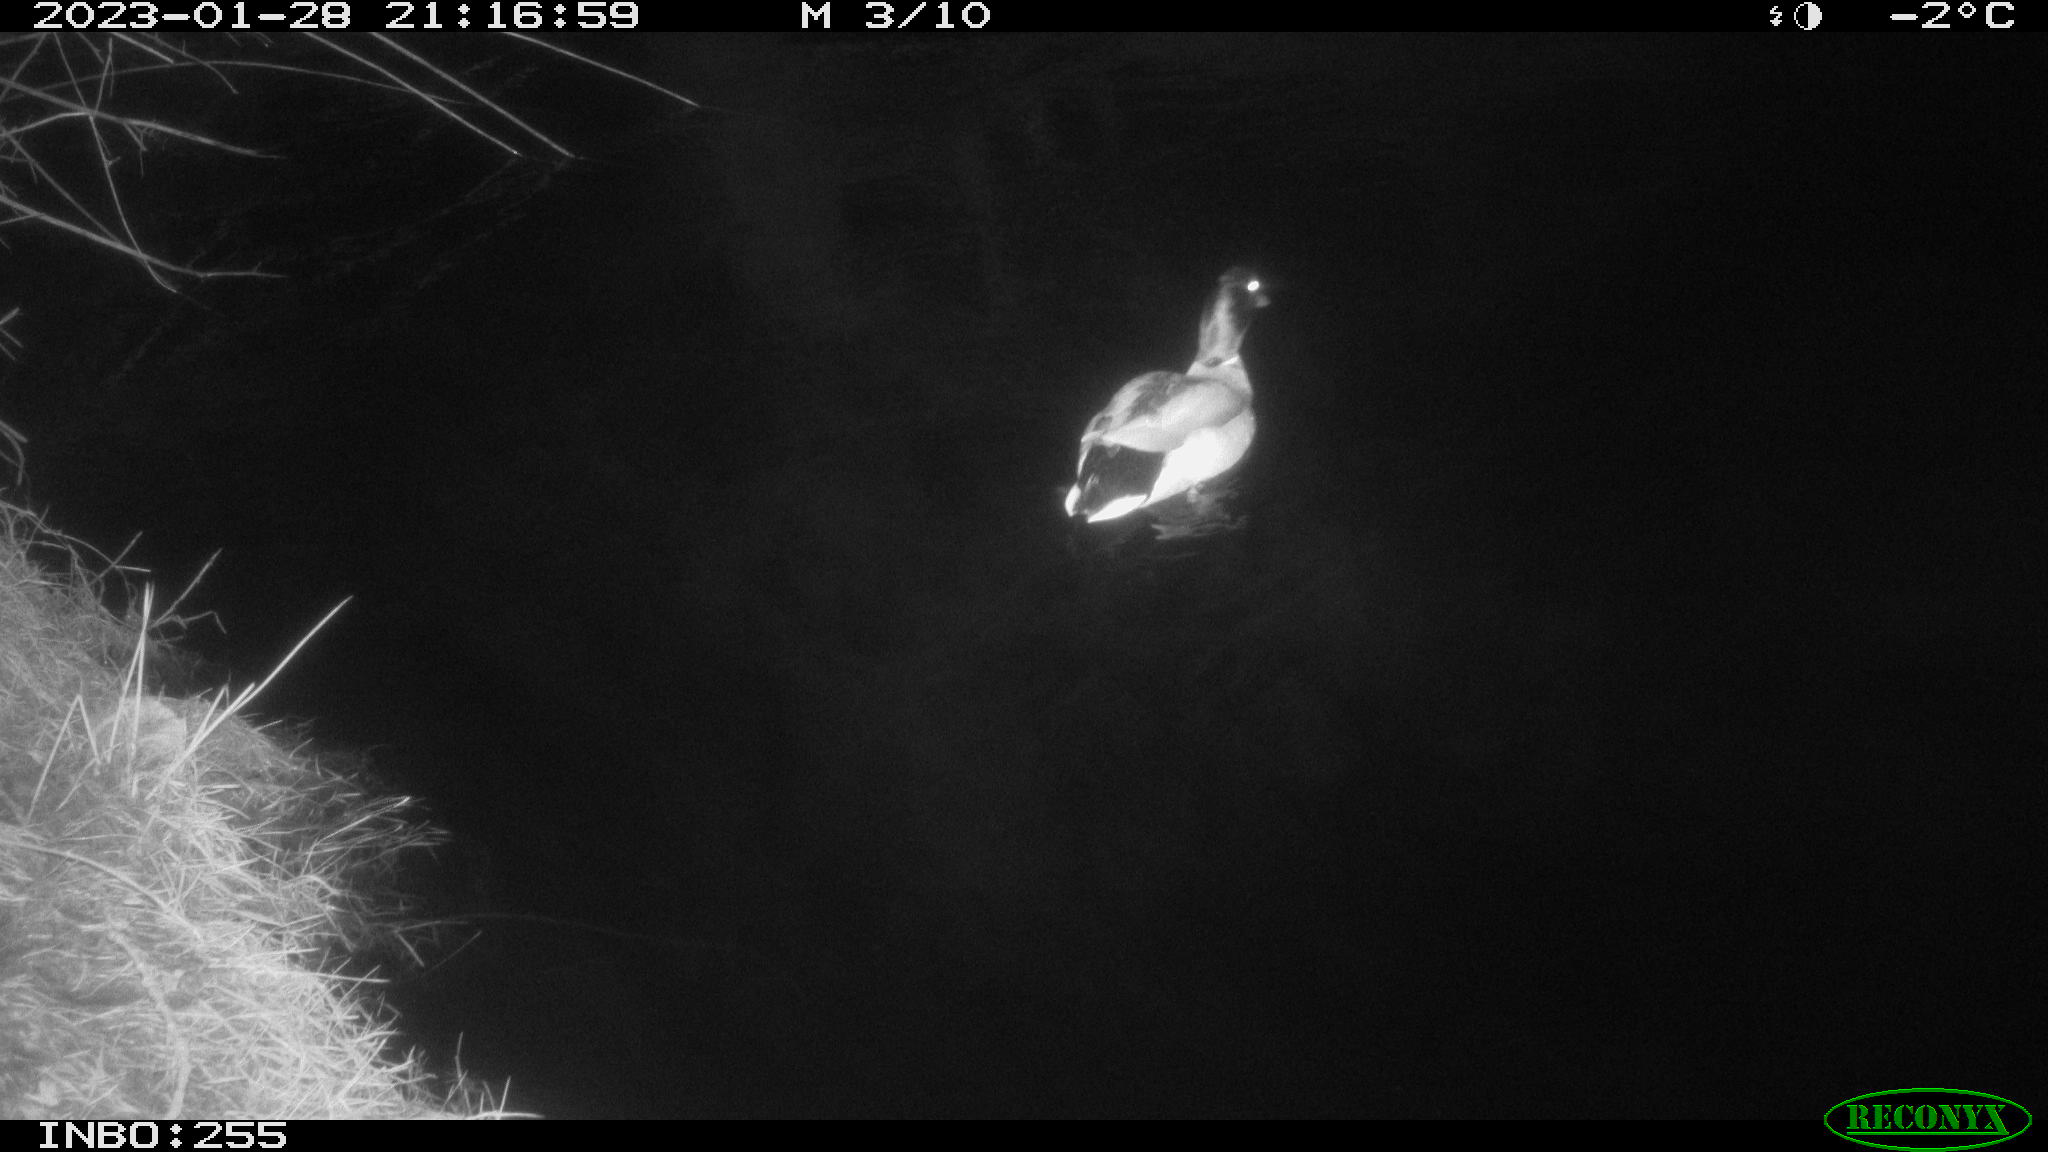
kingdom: Animalia
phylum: Chordata
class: Aves
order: Anseriformes
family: Anatidae
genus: Anas
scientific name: Anas
